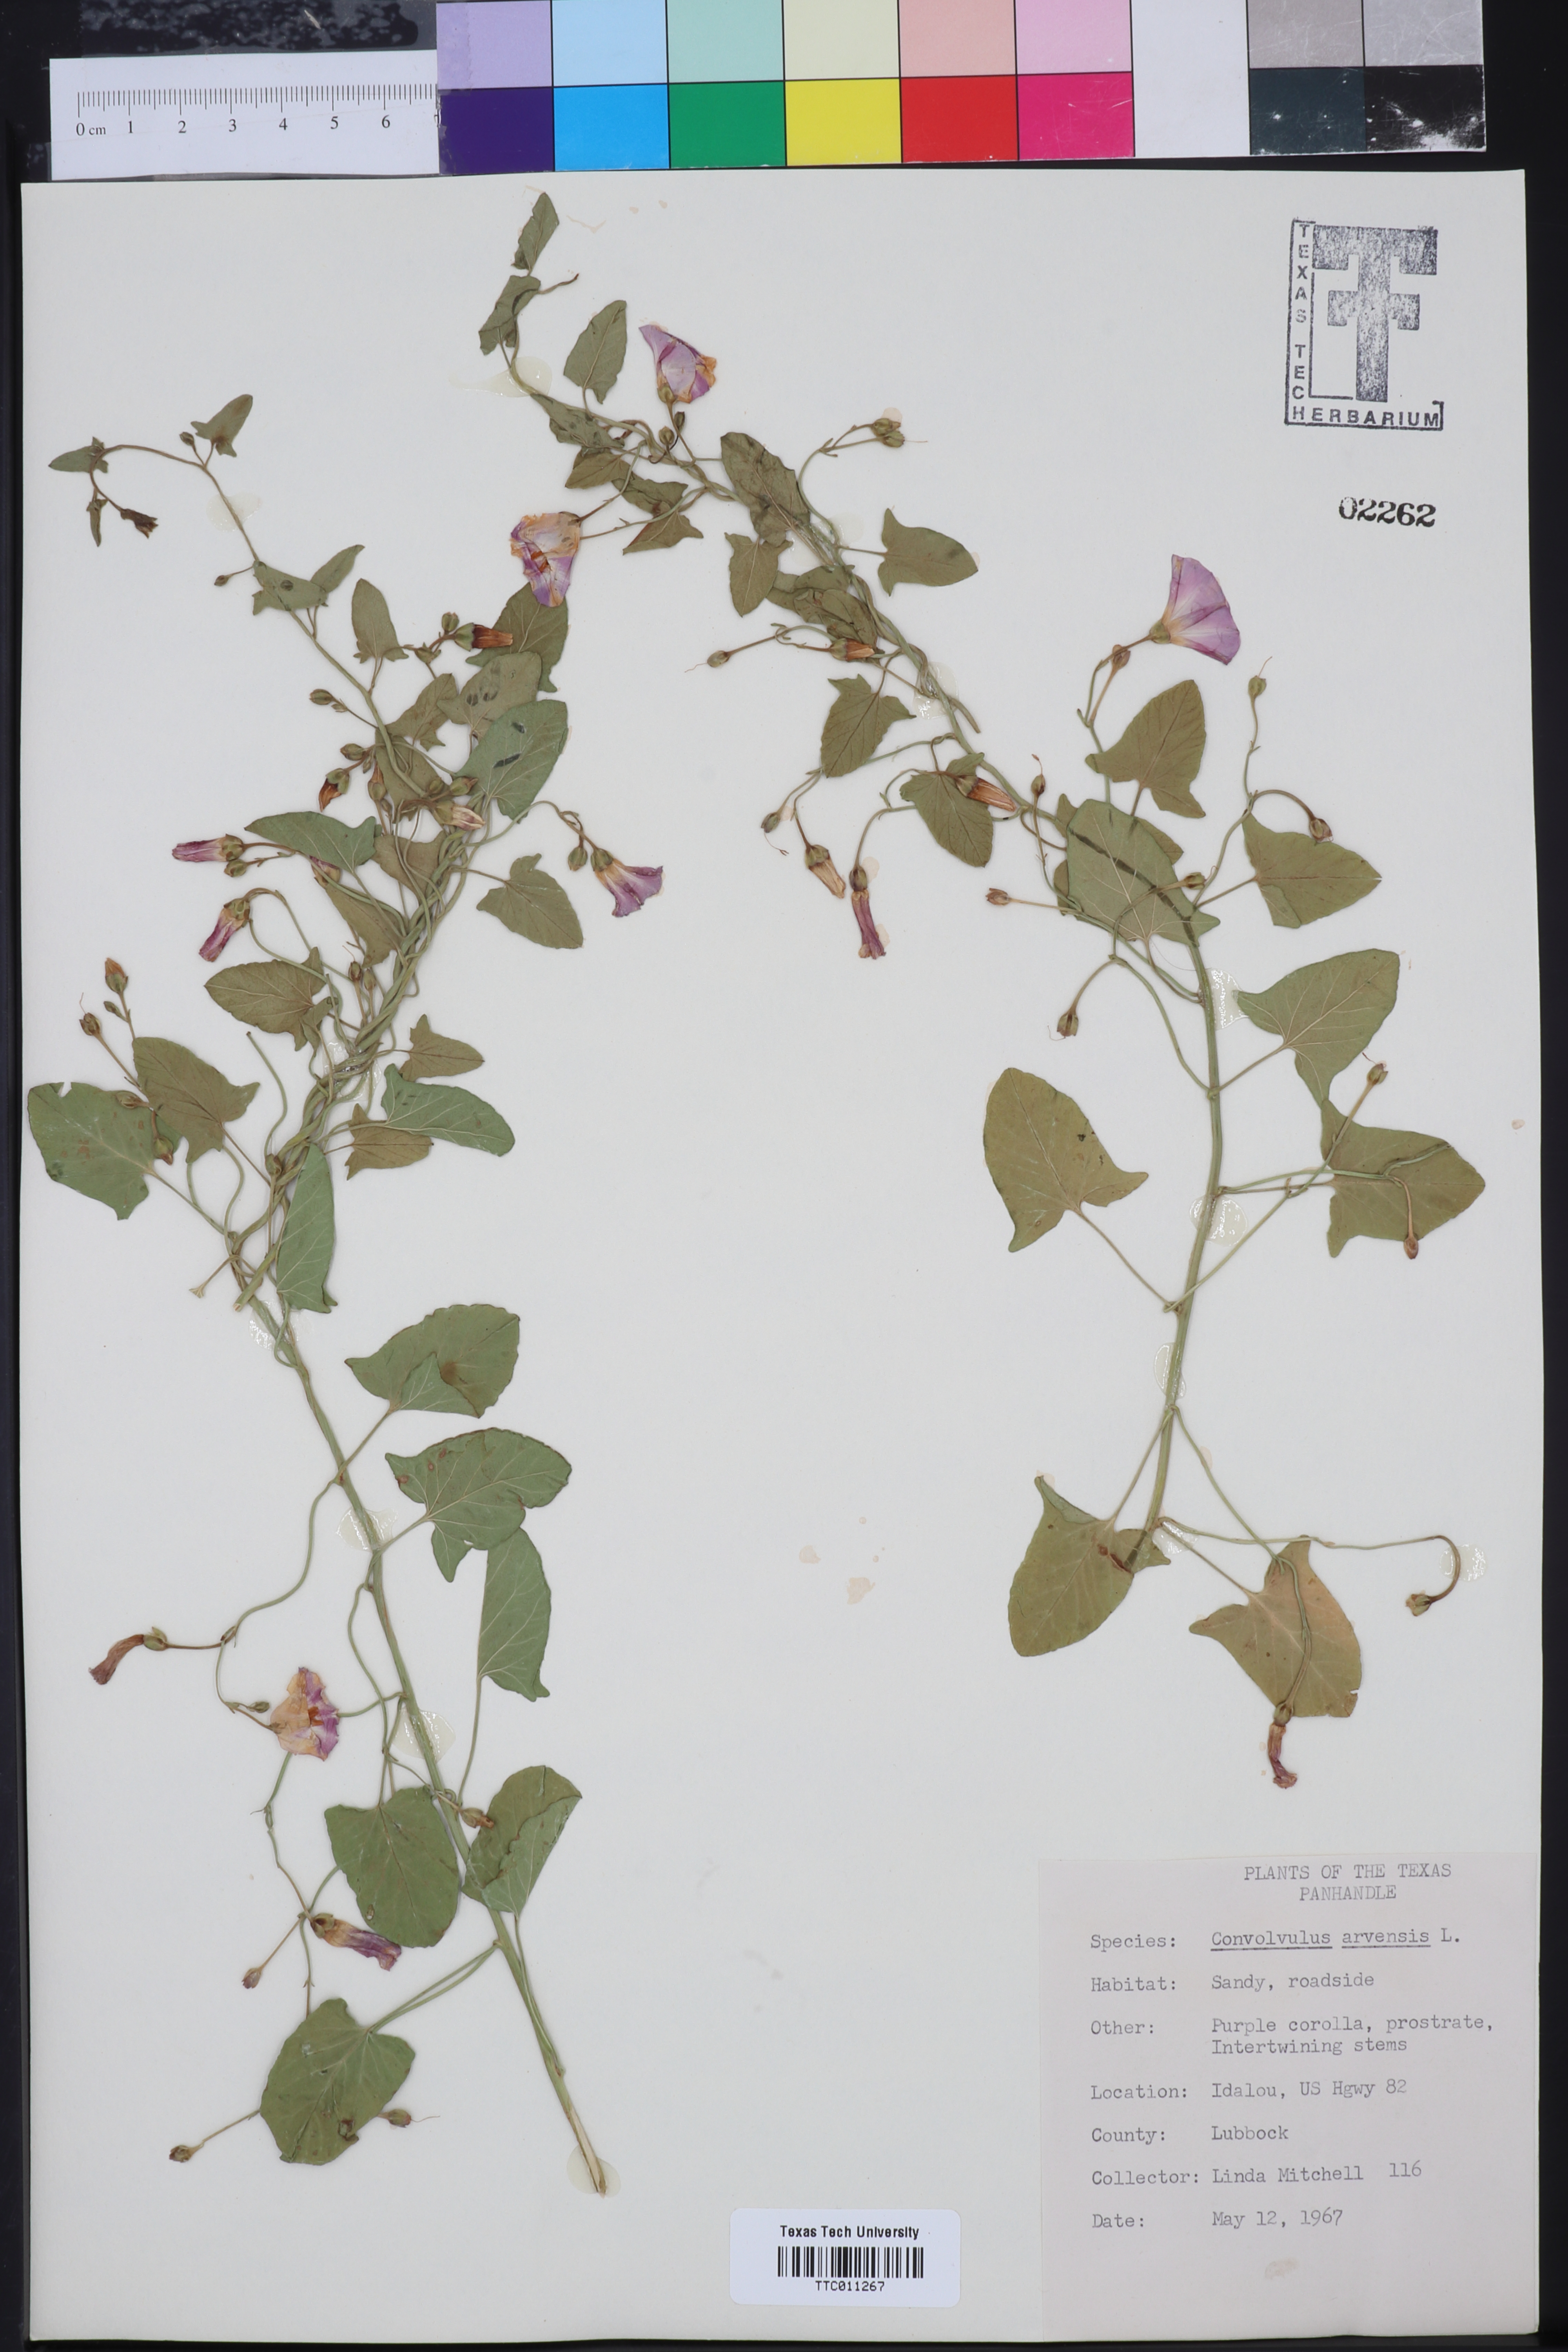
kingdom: Plantae
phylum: Tracheophyta
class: Magnoliopsida
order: Solanales
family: Convolvulaceae
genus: Convolvulus
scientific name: Convolvulus arvensis
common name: Field bindweed
